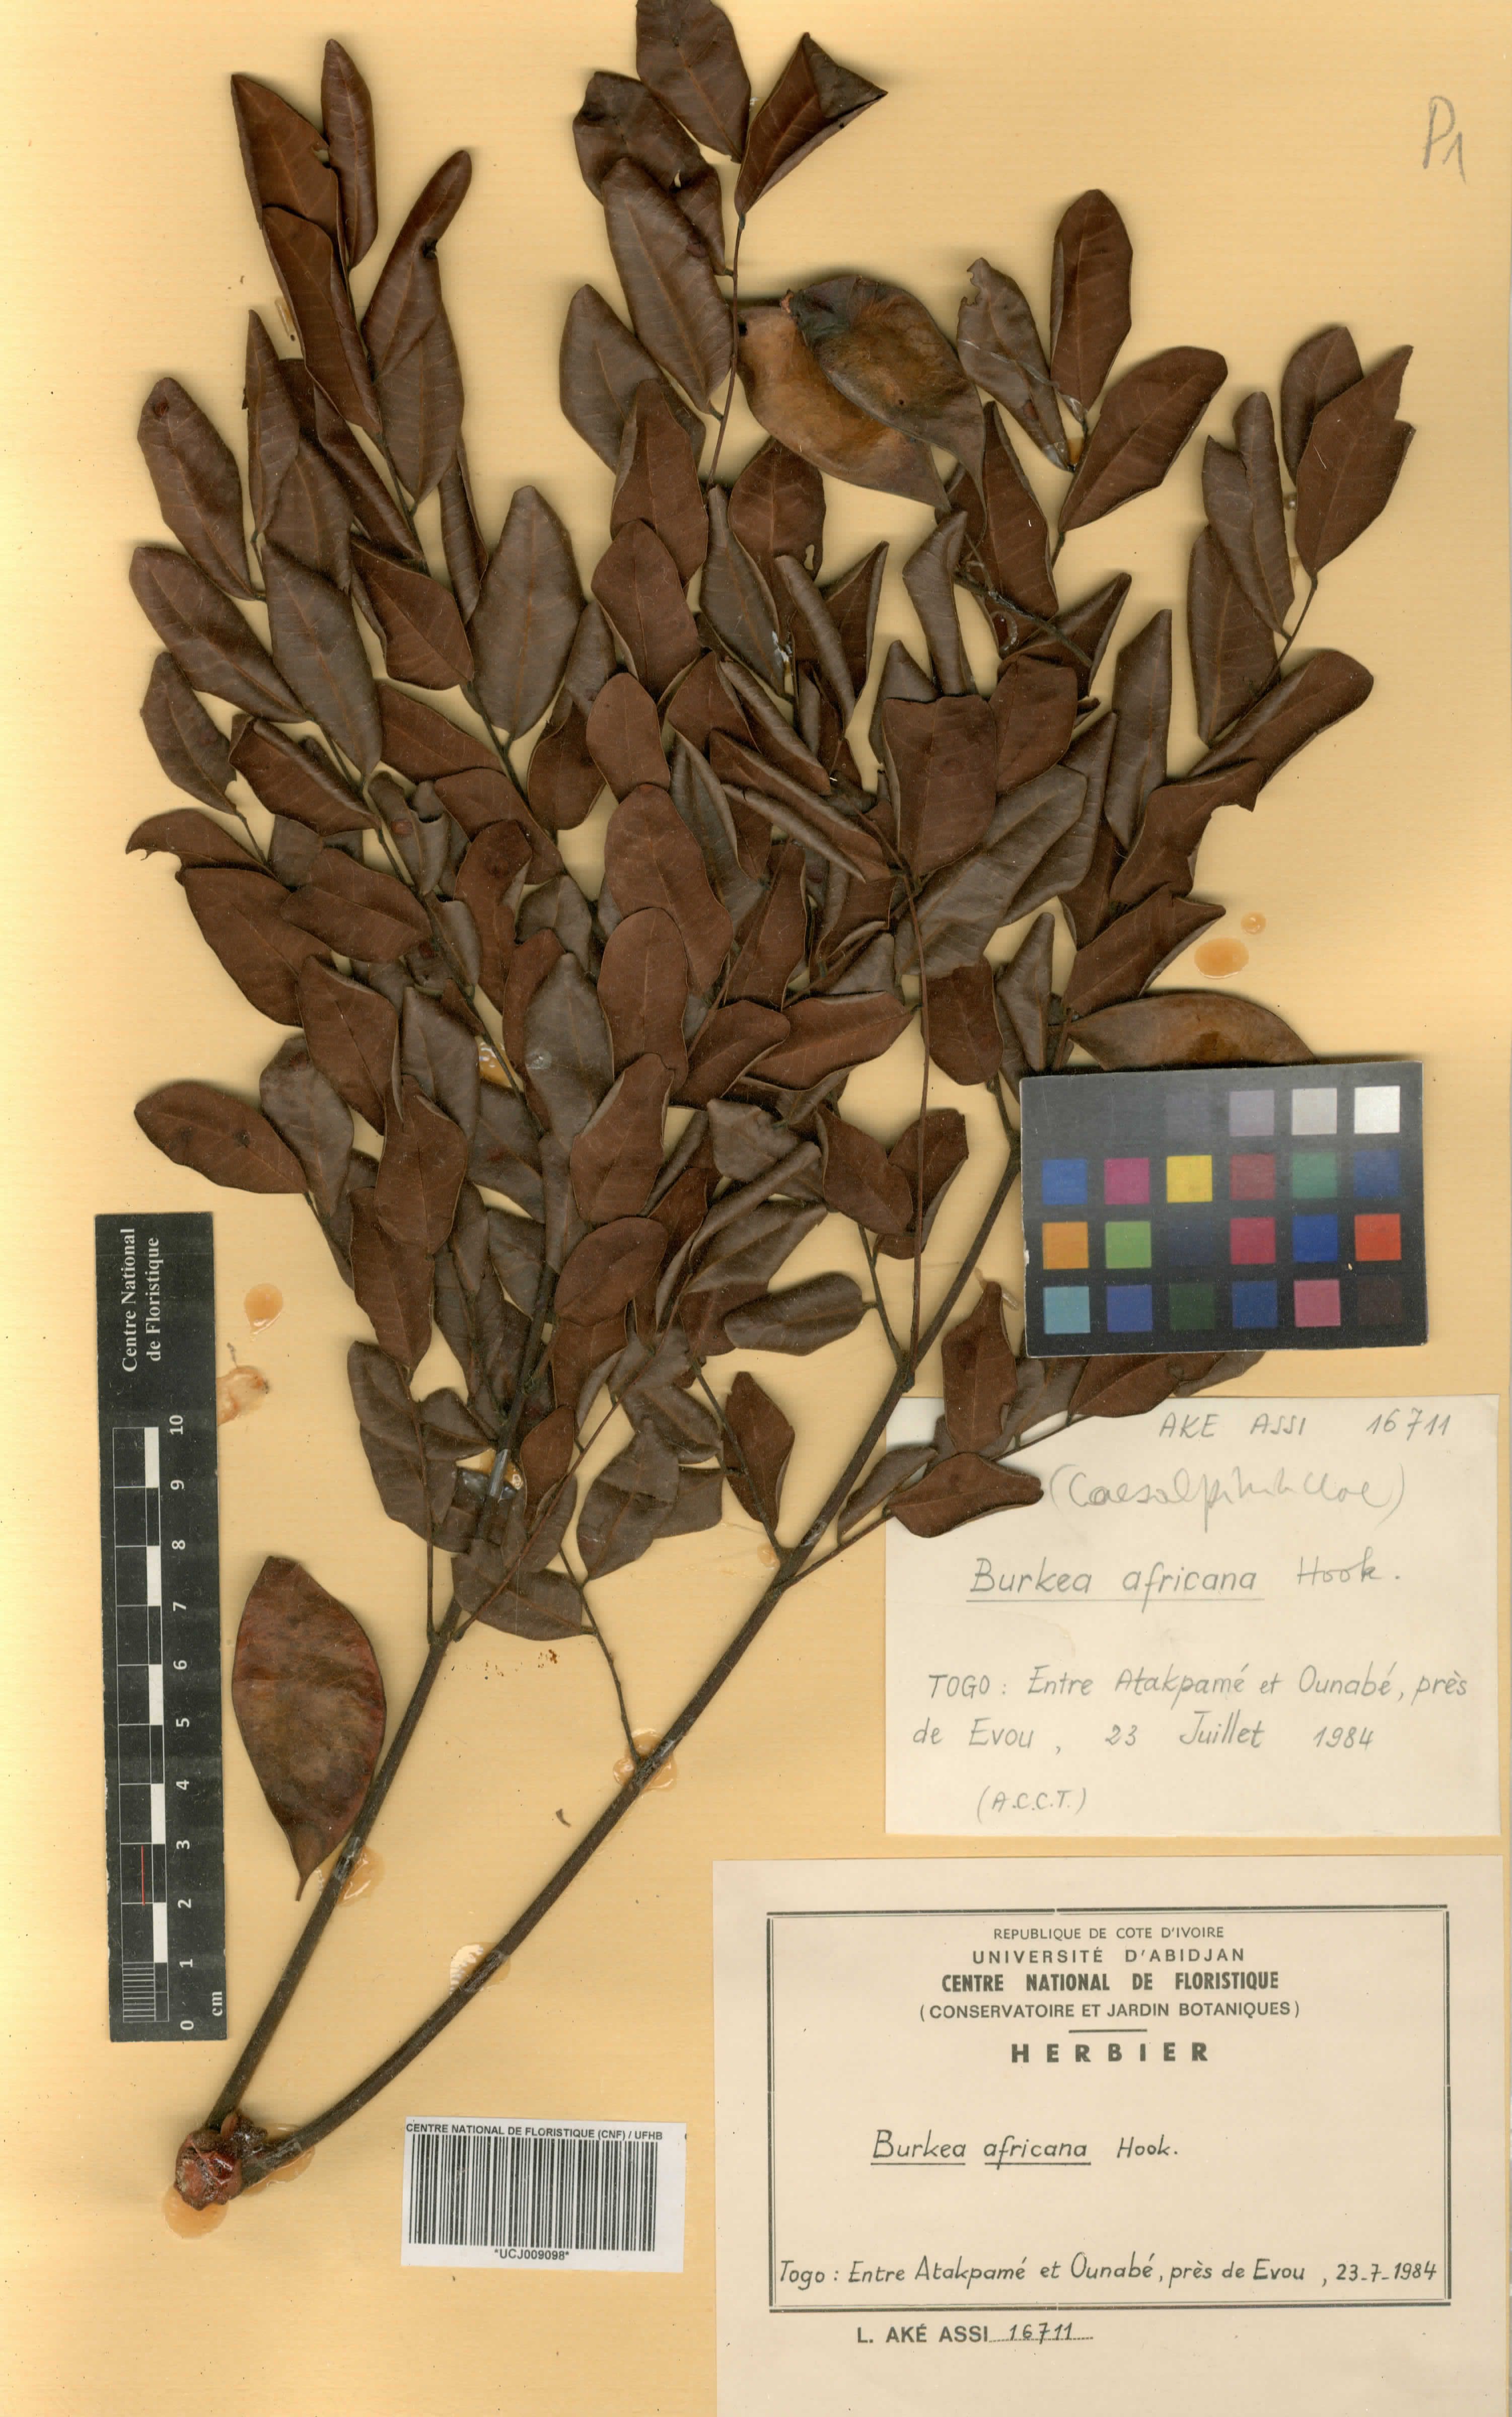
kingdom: Plantae
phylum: Tracheophyta
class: Magnoliopsida
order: Fabales
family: Fabaceae
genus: Burkea
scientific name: Burkea africana
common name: Mkalati tree
